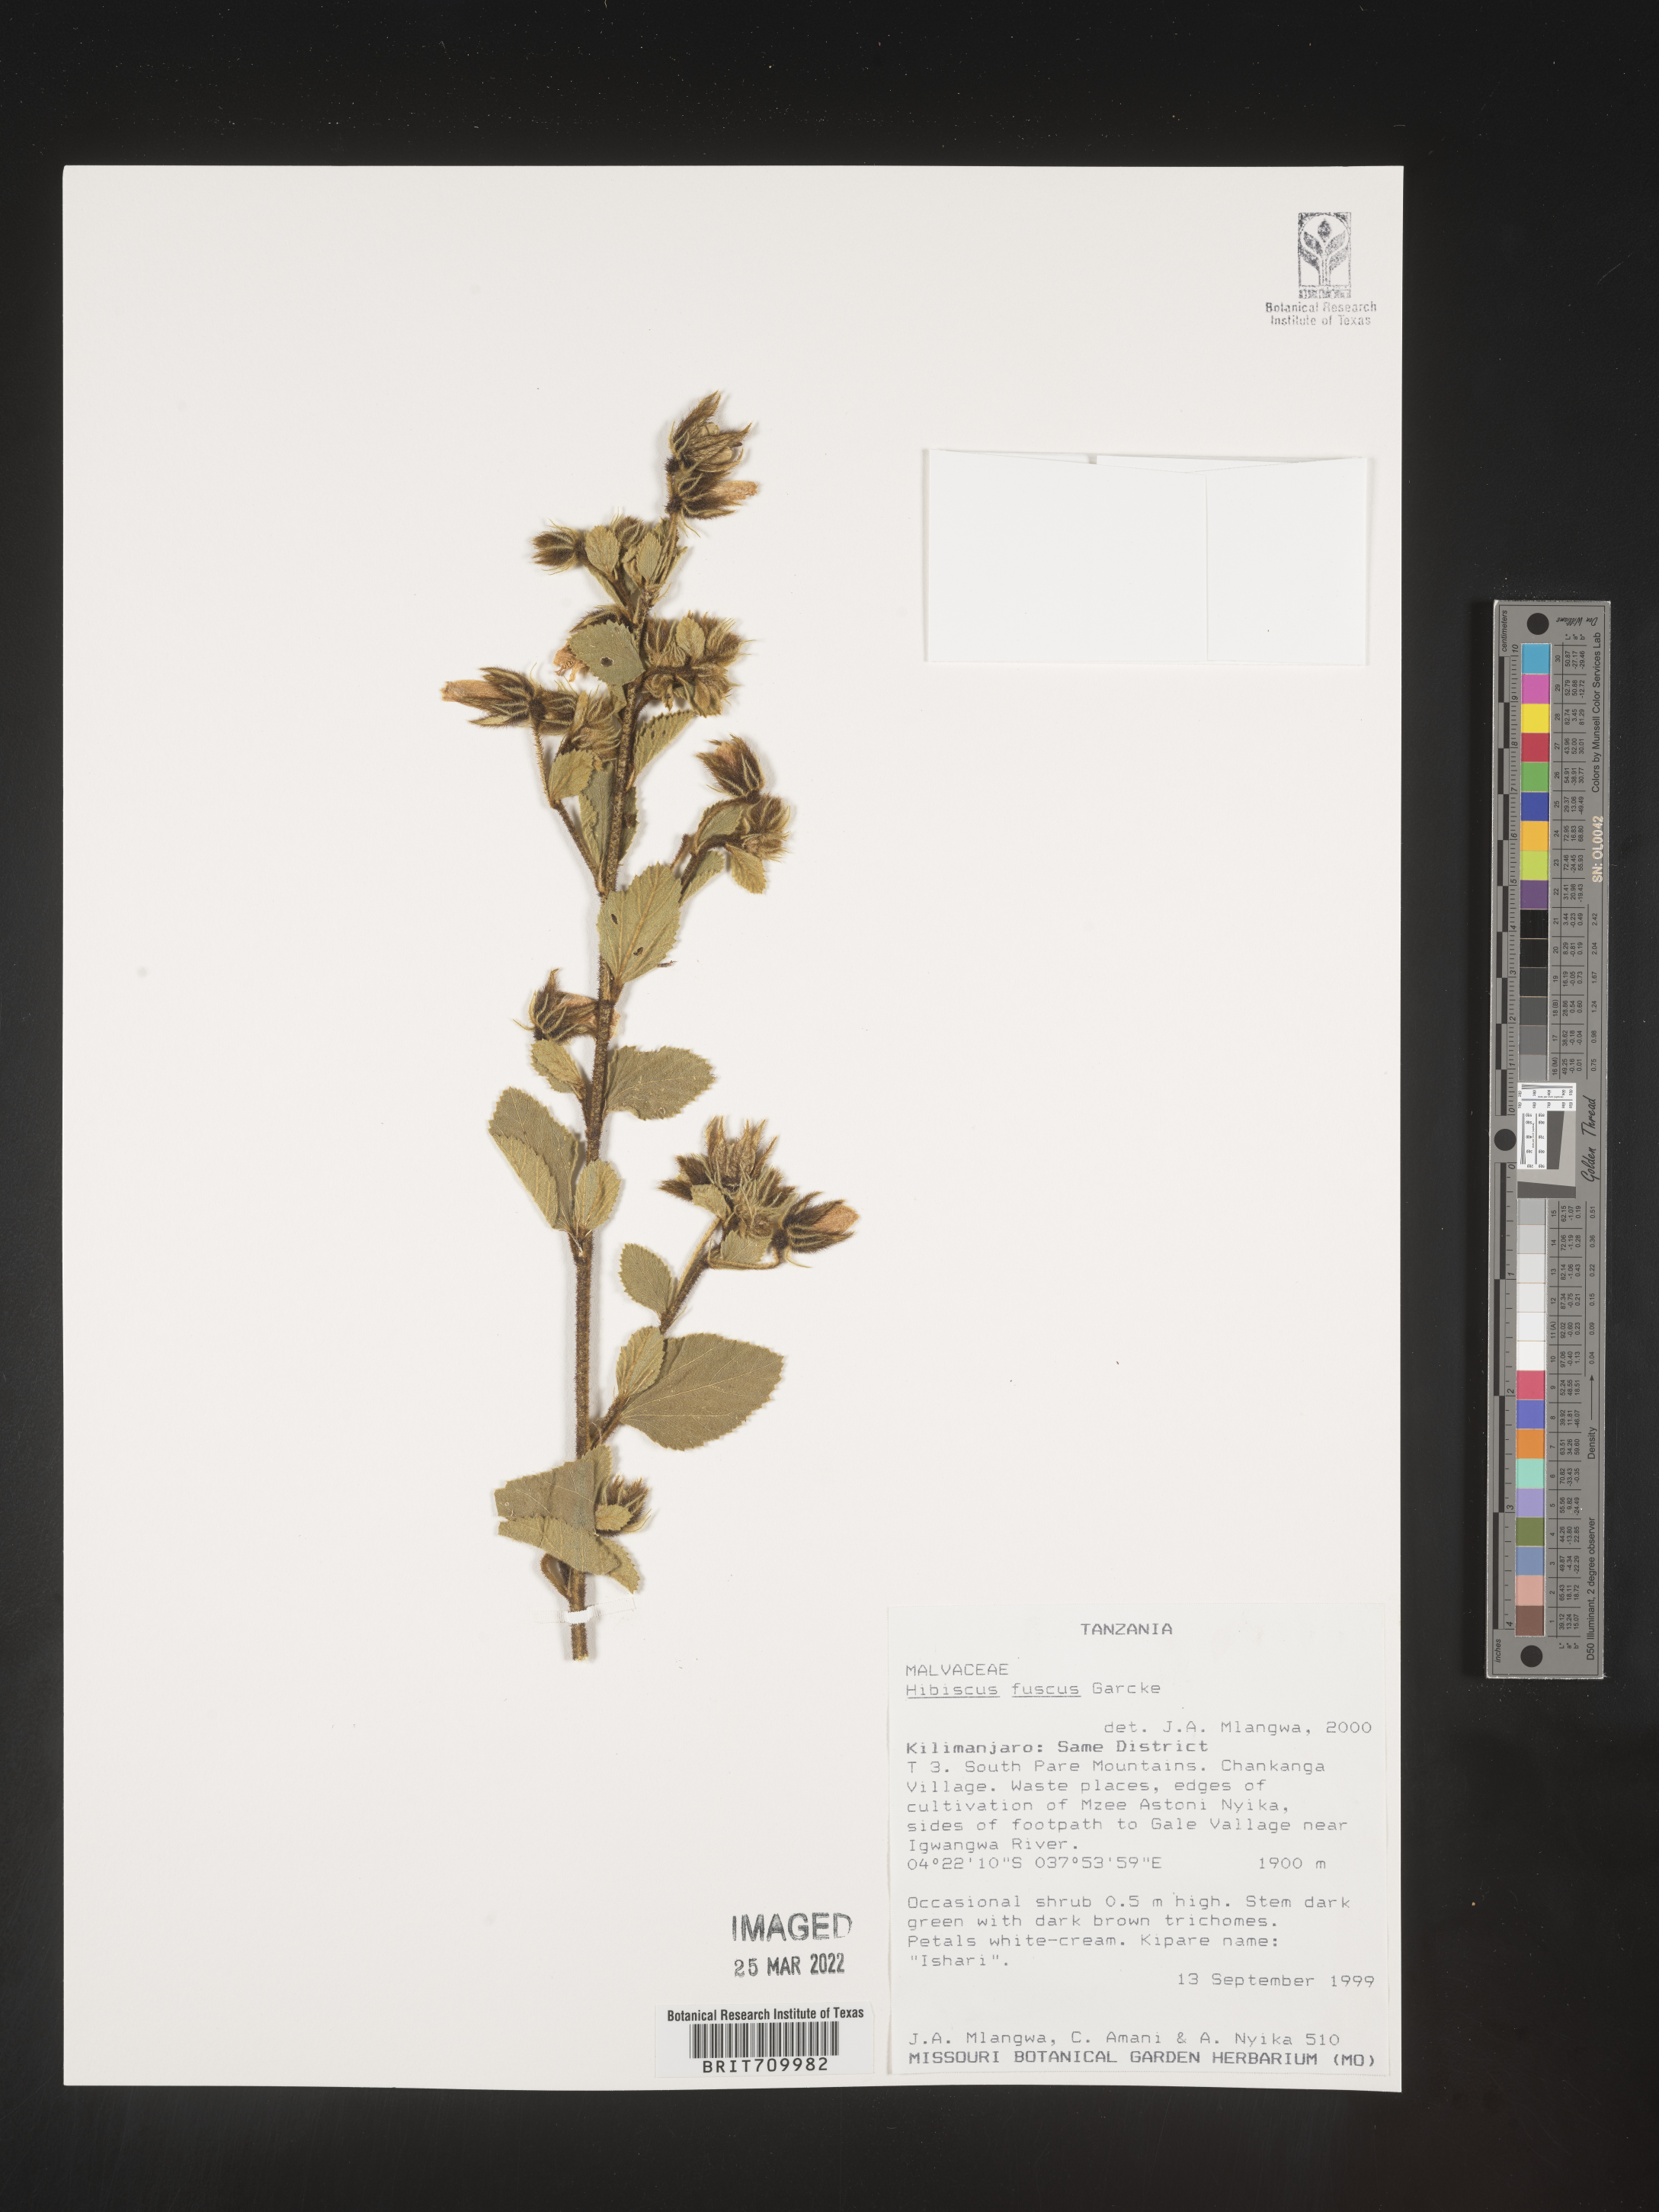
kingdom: Plantae
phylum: Tracheophyta
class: Magnoliopsida
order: Malvales
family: Malvaceae
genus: Hibiscus
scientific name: Hibiscus
